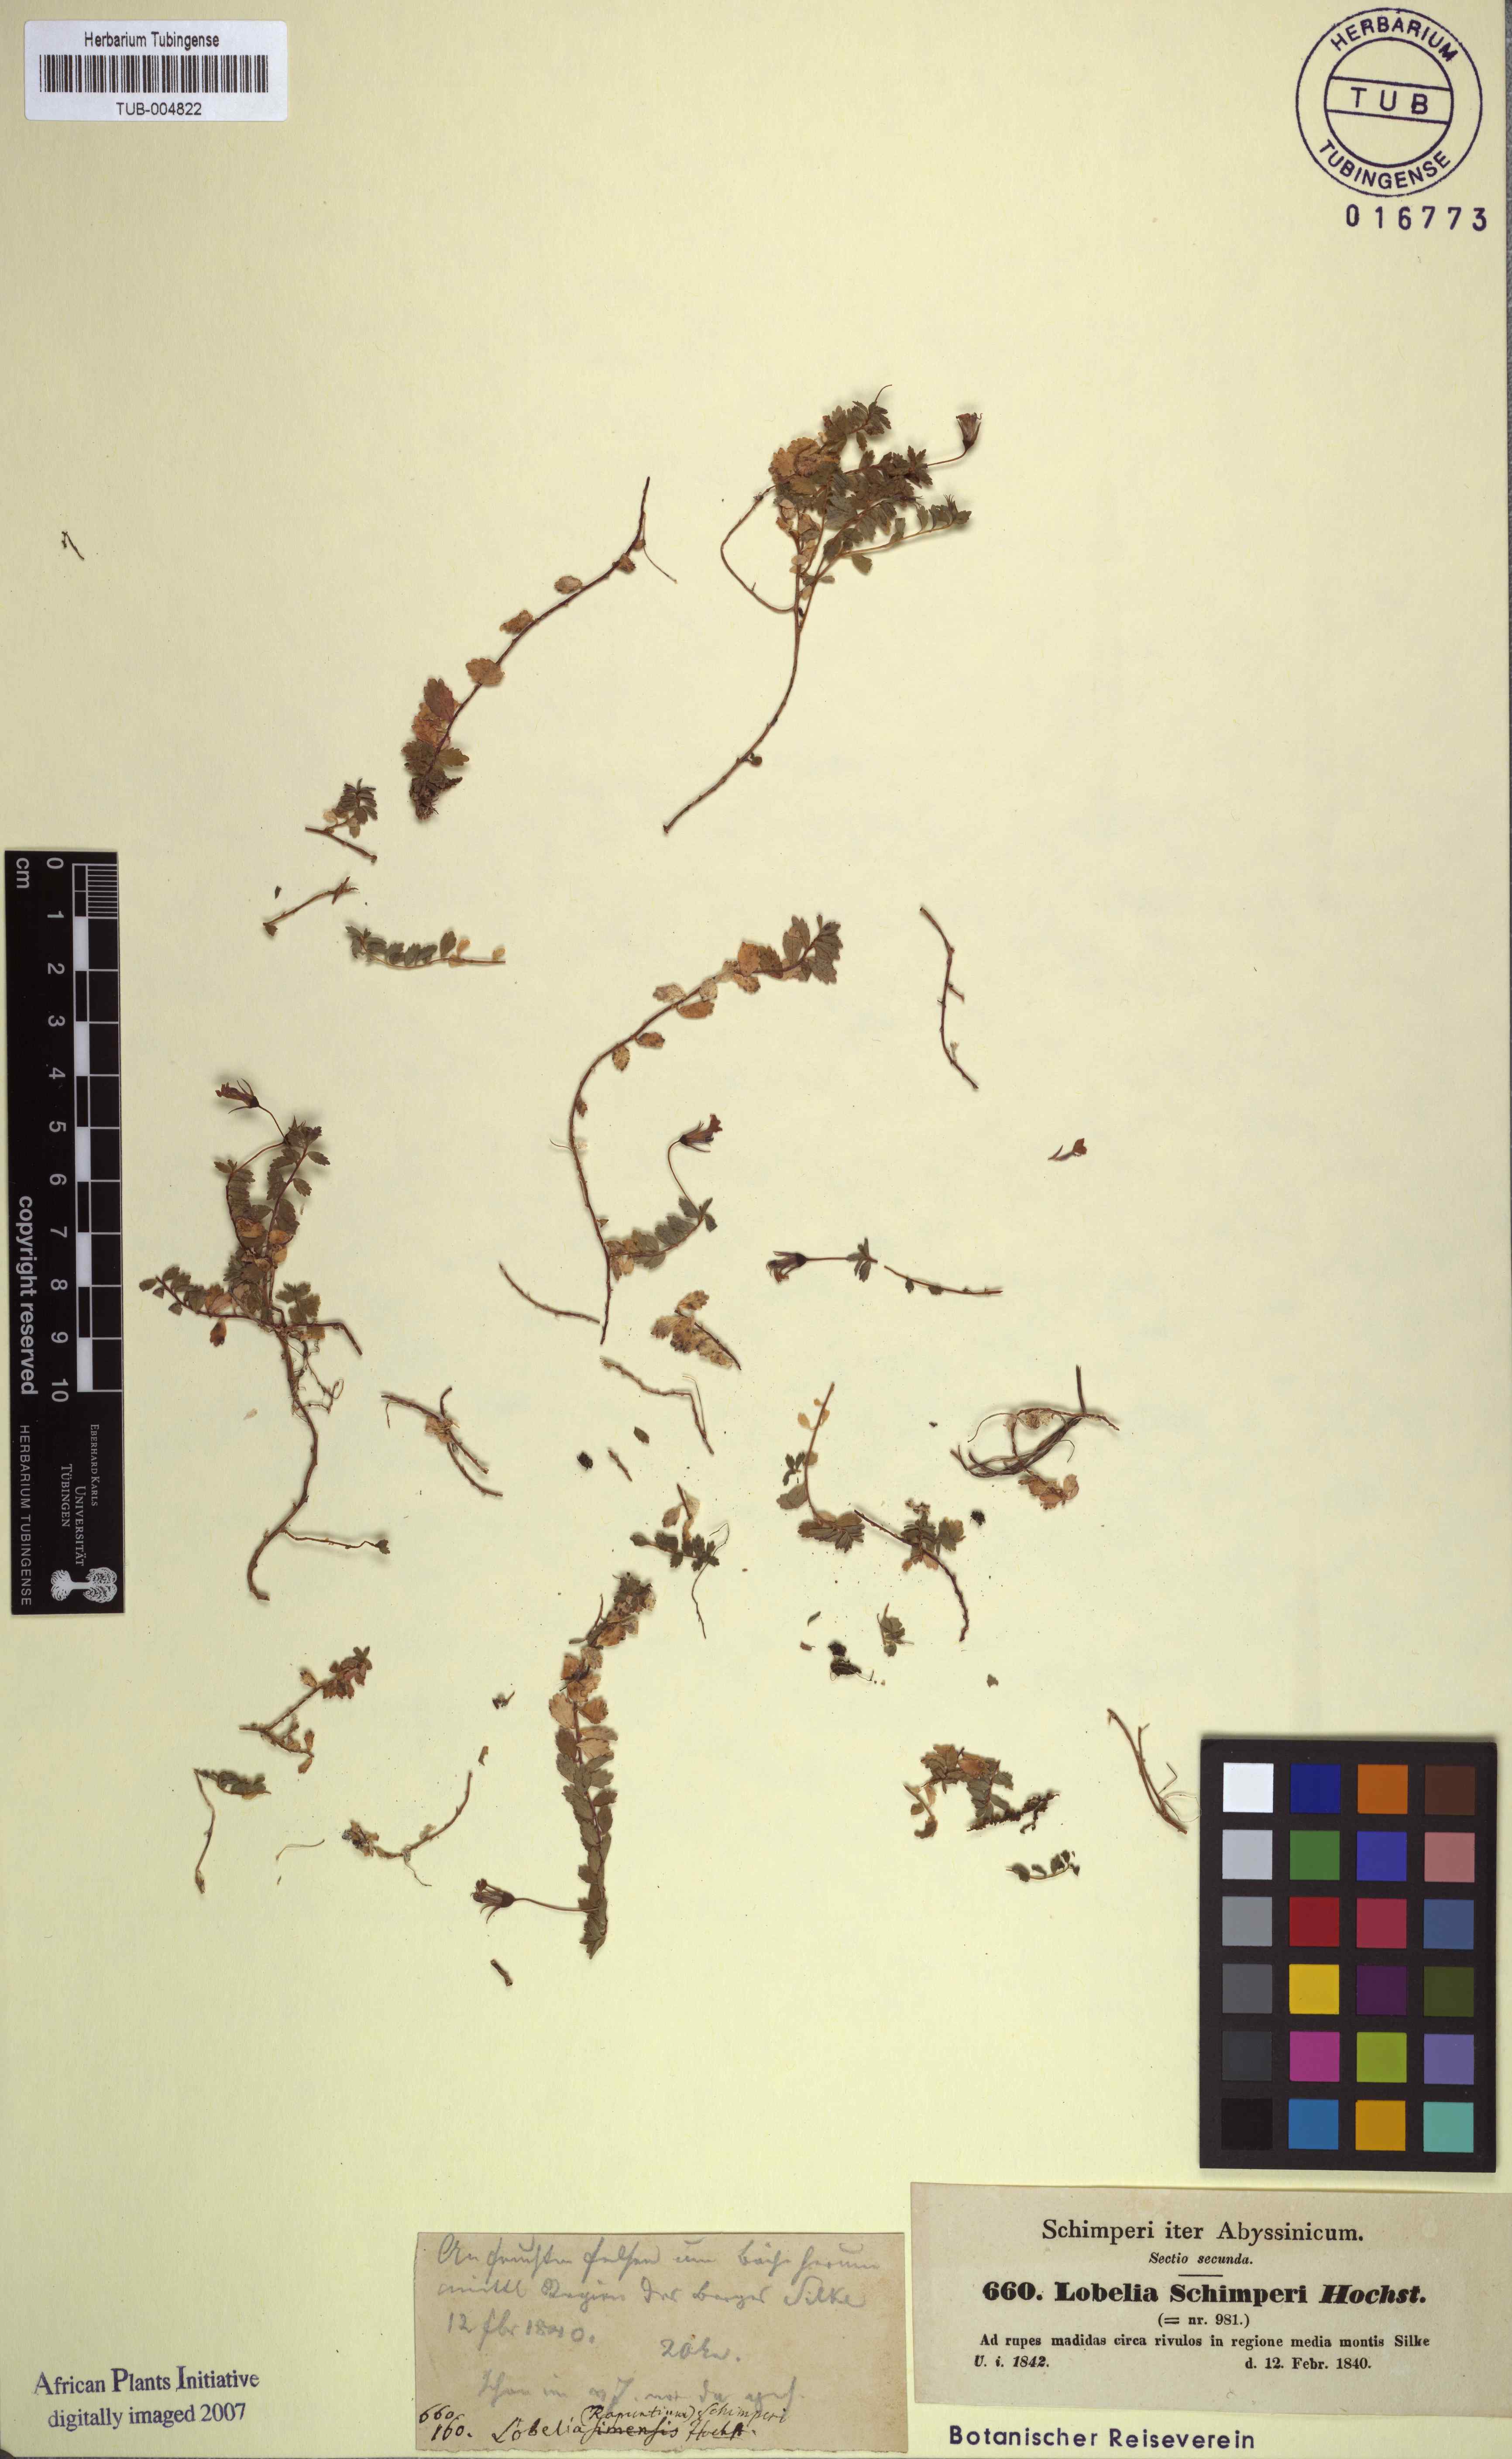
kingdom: Plantae
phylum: Tracheophyta
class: Magnoliopsida
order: Asterales
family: Campanulaceae
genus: Lobelia
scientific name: Lobelia schimperi
